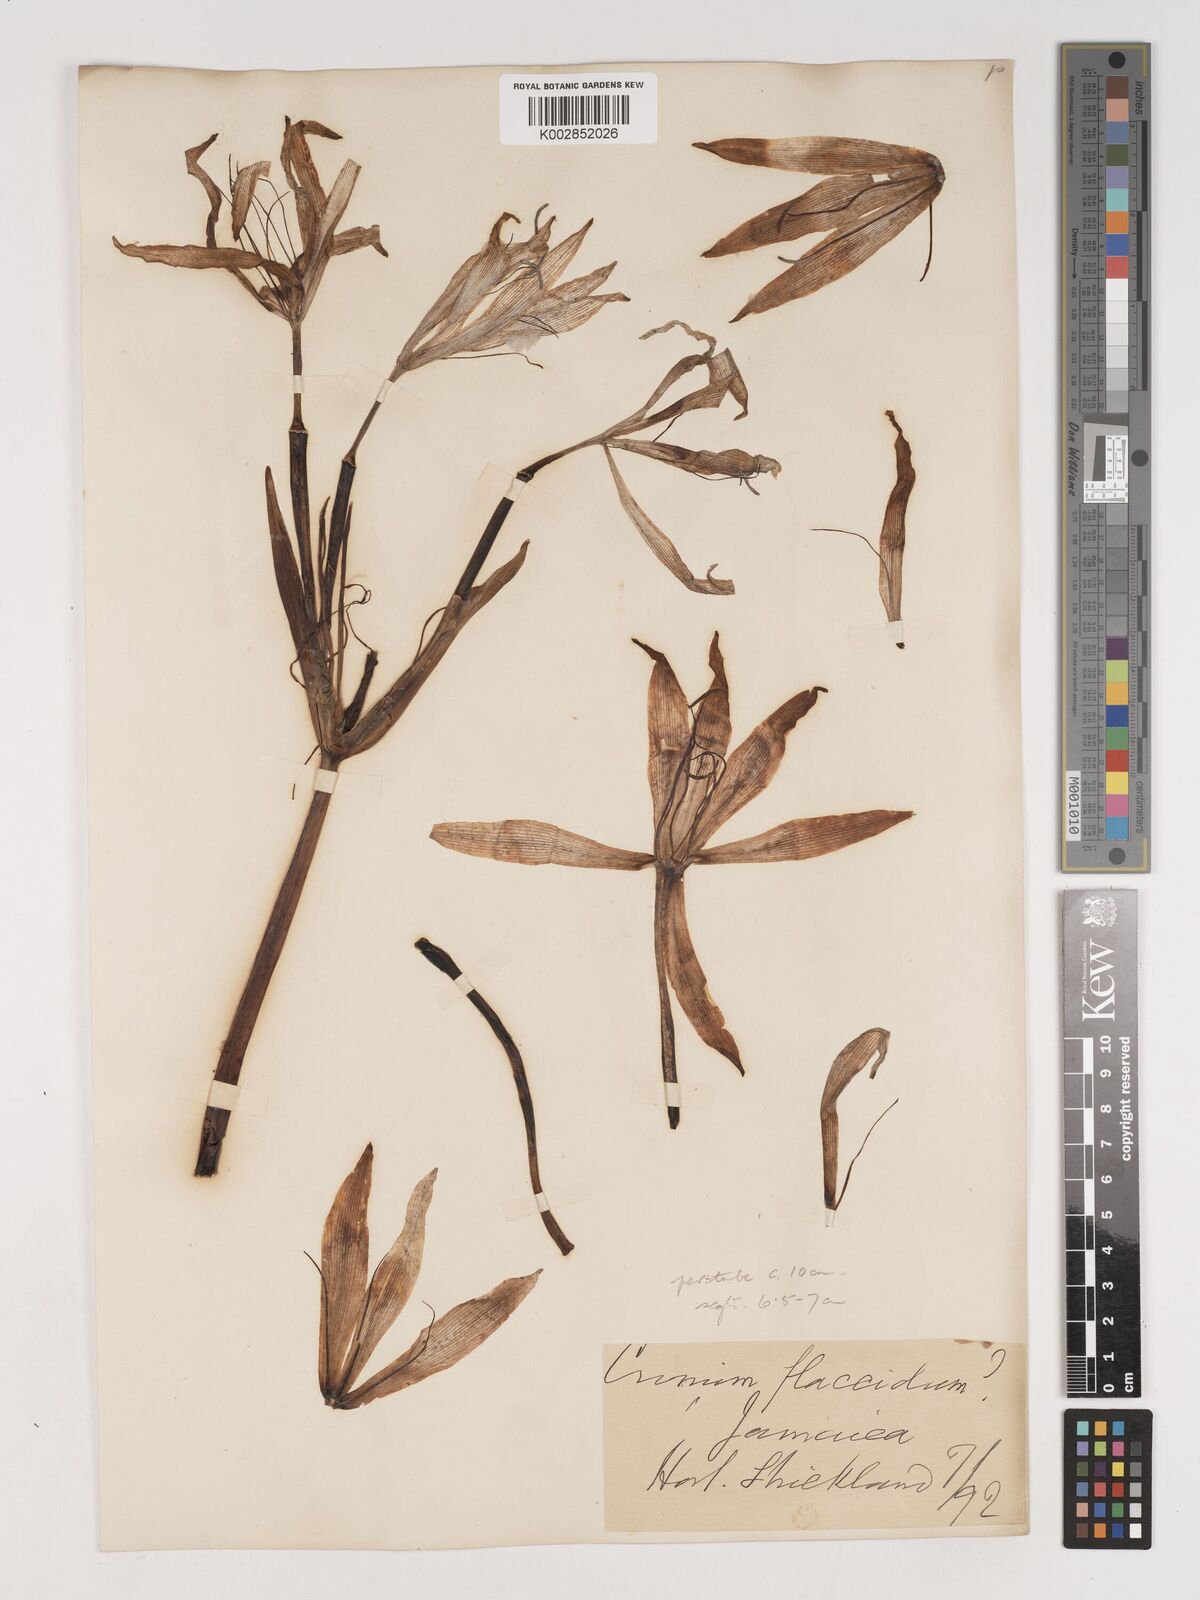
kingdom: Plantae
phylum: Tracheophyta
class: Liliopsida
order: Asparagales
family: Amaryllidaceae
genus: Crinum
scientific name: Crinum erubescens
